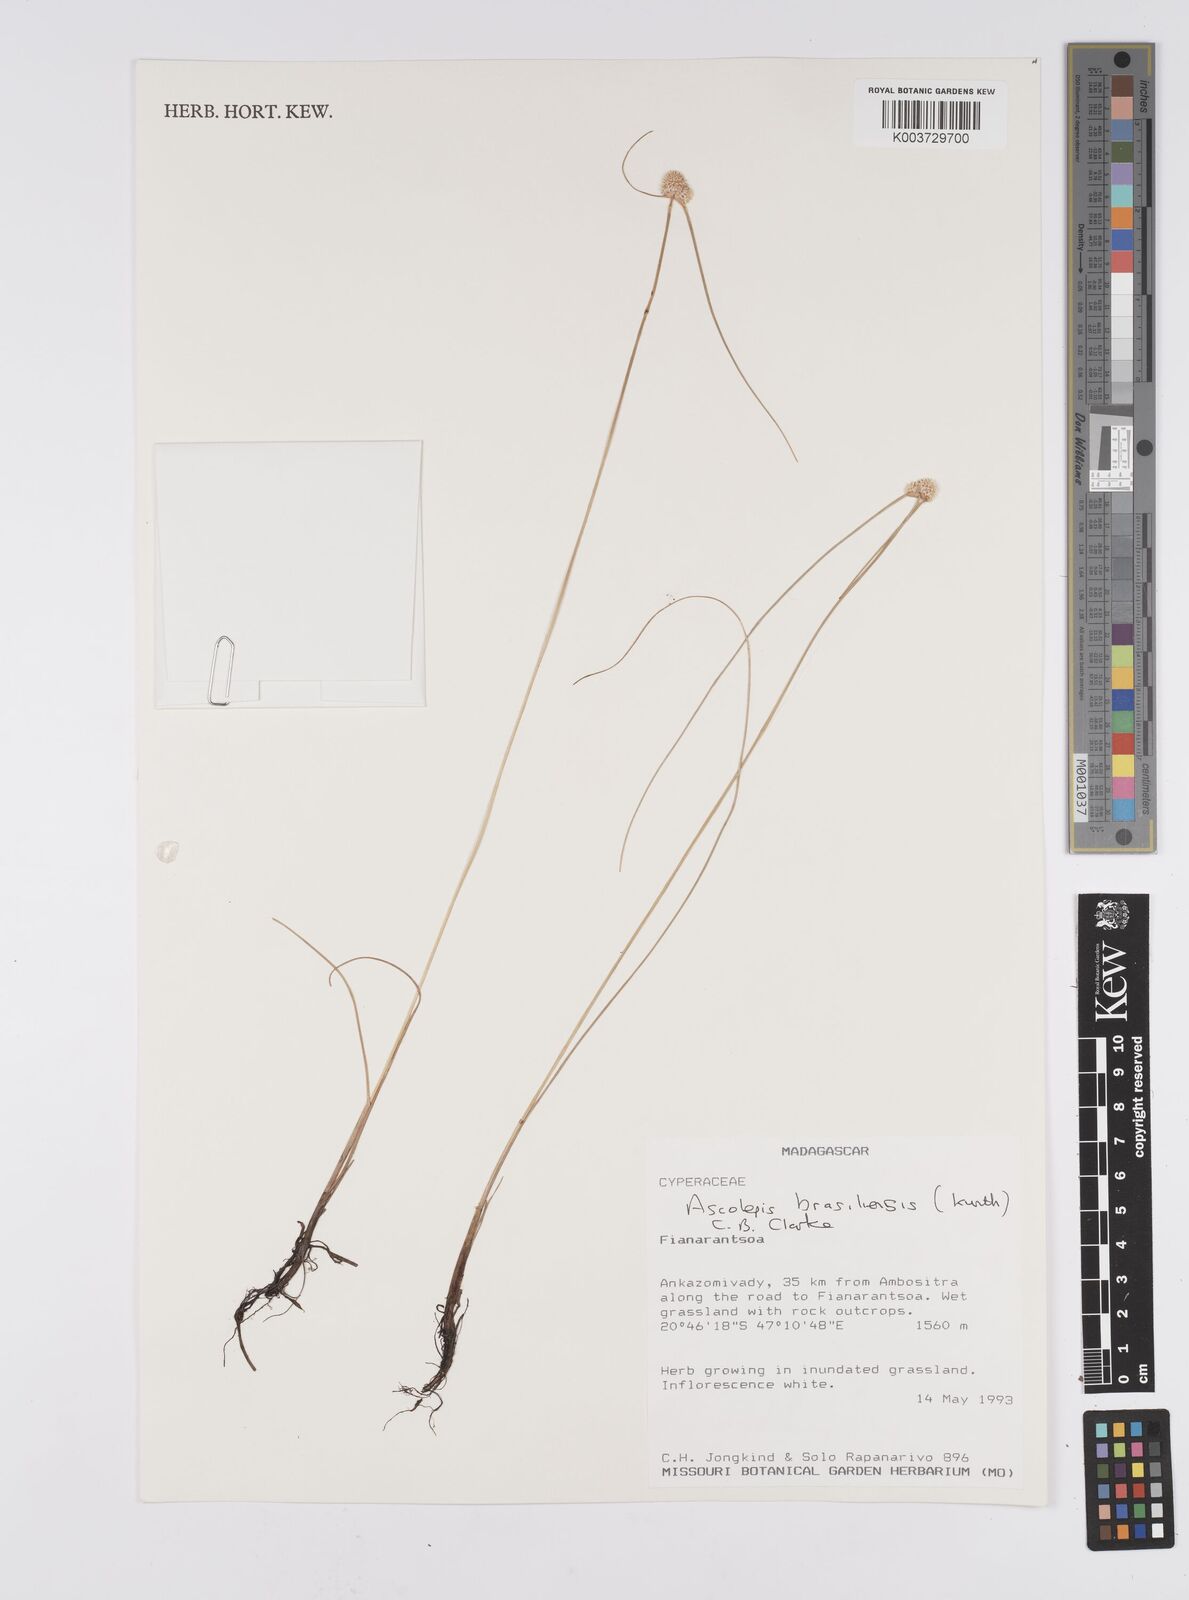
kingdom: Plantae
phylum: Tracheophyta
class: Liliopsida
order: Poales
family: Cyperaceae
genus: Cyperus
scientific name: Cyperus brasiliensis
